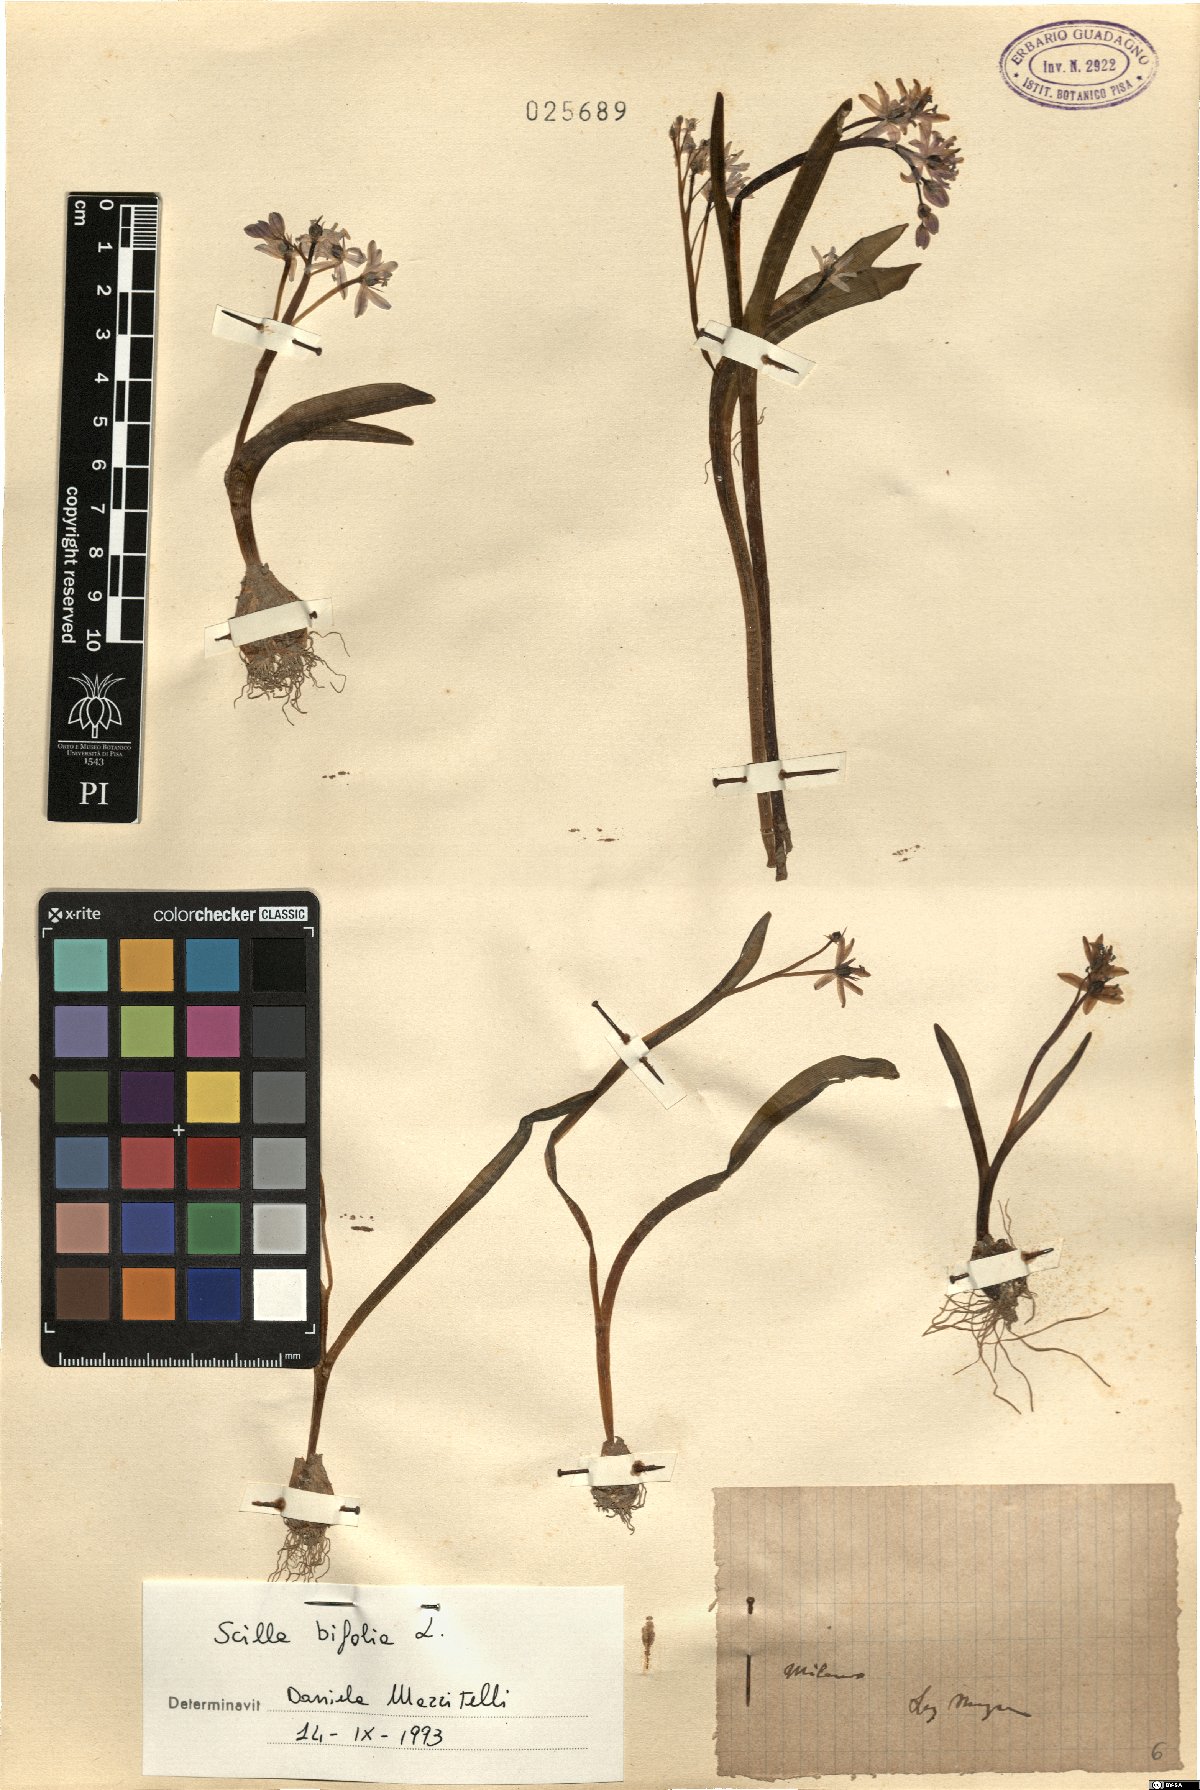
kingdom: Plantae
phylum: Tracheophyta
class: Liliopsida
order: Asparagales
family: Asparagaceae
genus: Scilla
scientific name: Scilla bifolia
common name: Alpine squill
